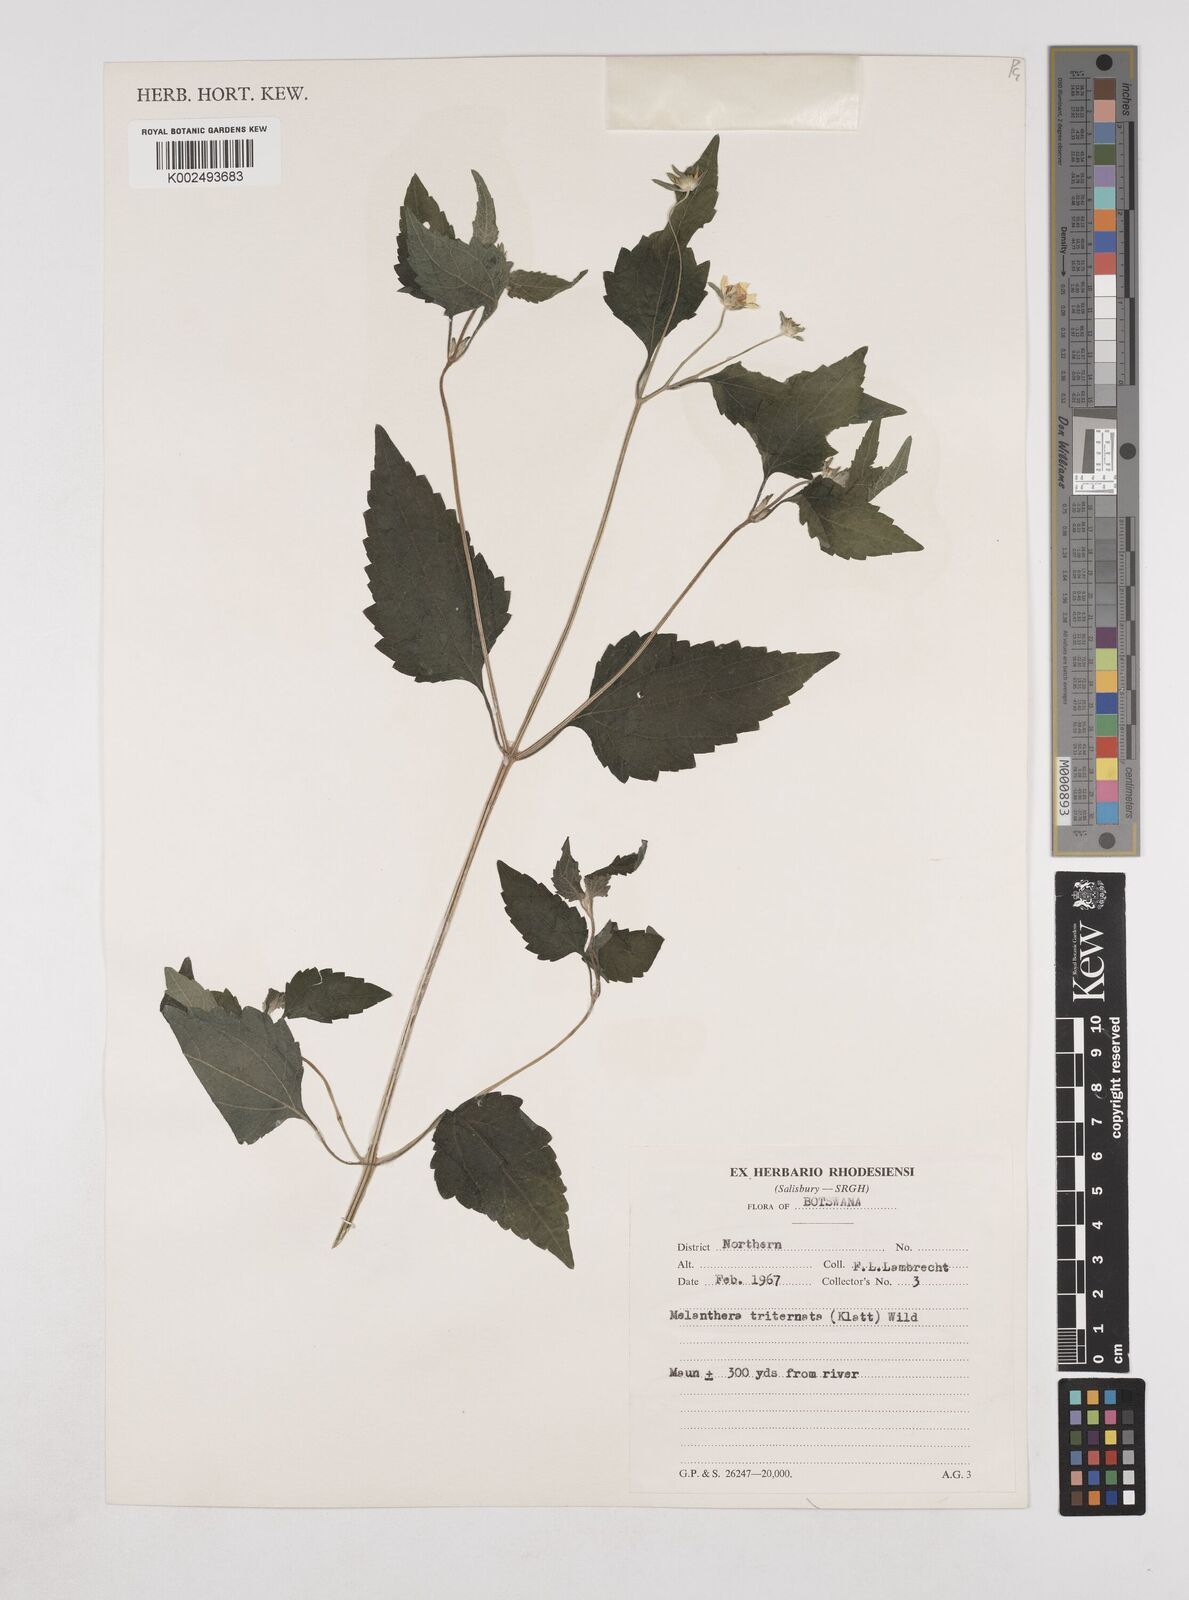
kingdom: Plantae
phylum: Tracheophyta
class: Magnoliopsida
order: Asterales
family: Asteraceae
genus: Lipotriche
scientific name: Lipotriche marlothiana
